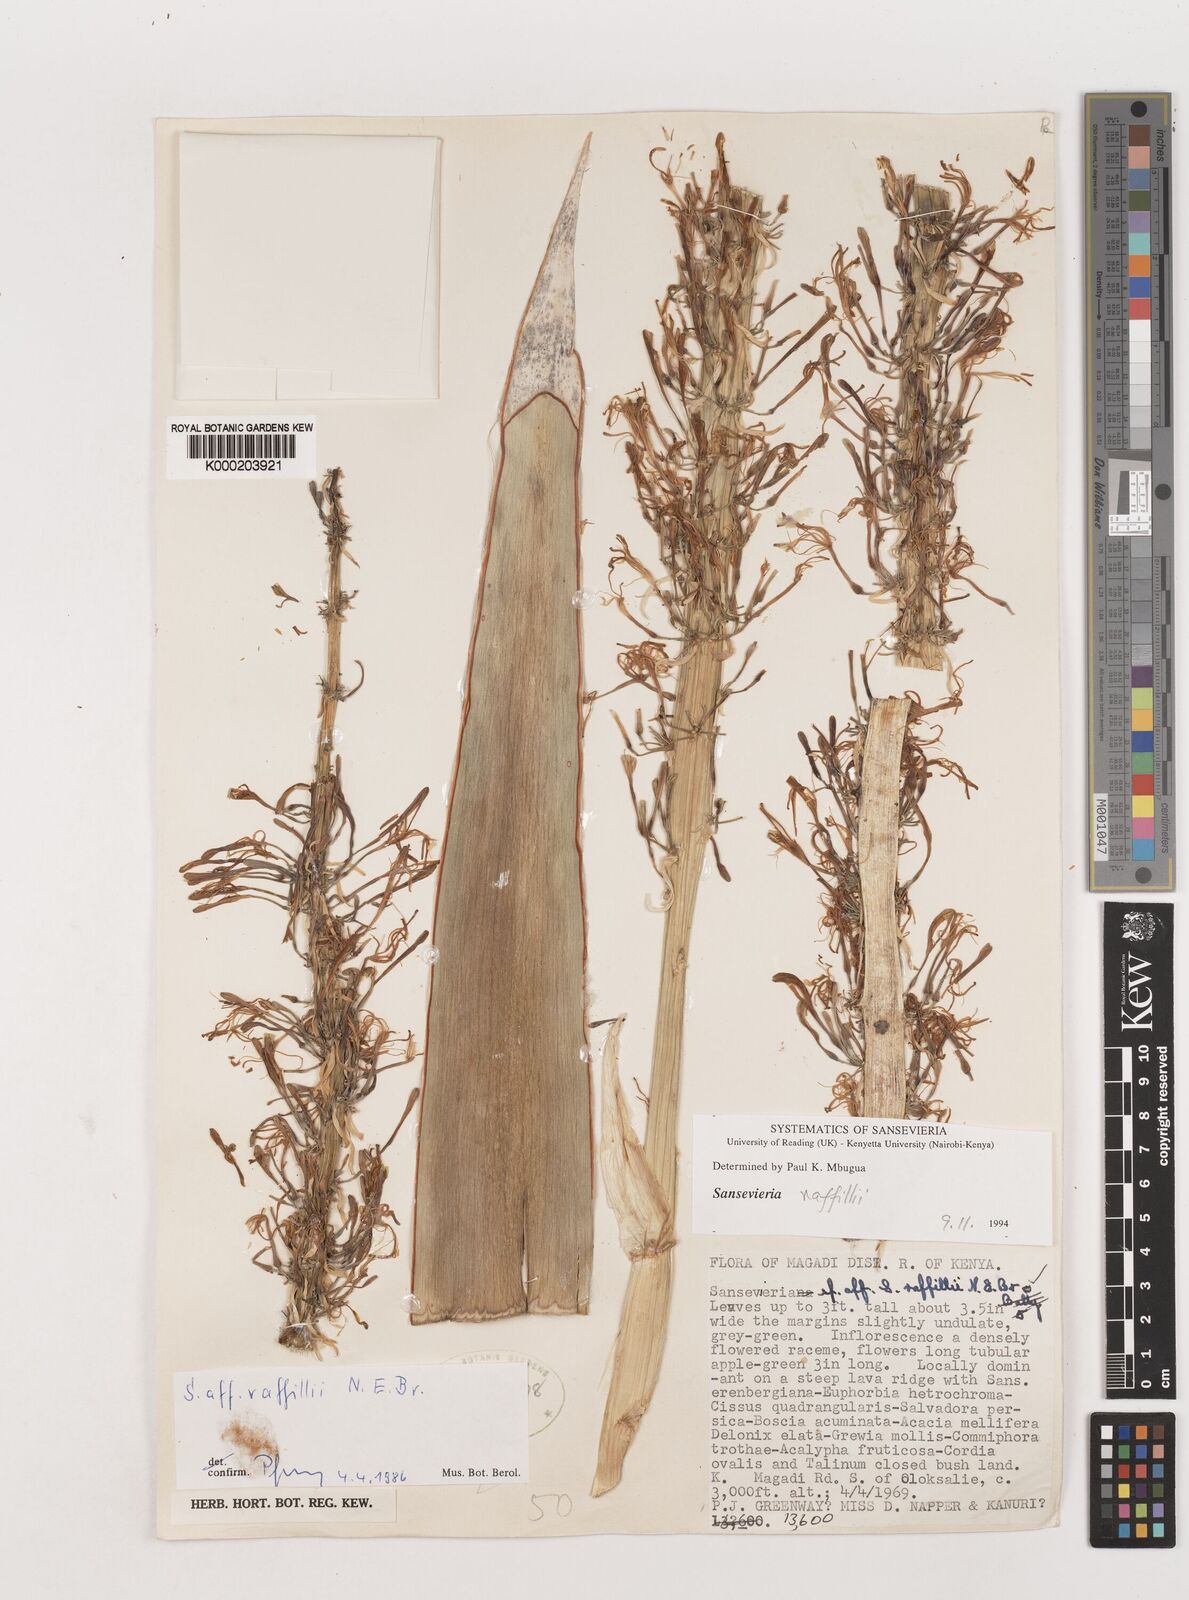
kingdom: Plantae
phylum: Tracheophyta
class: Liliopsida
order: Asparagales
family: Asparagaceae
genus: Dracaena
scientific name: Dracaena raffillii
